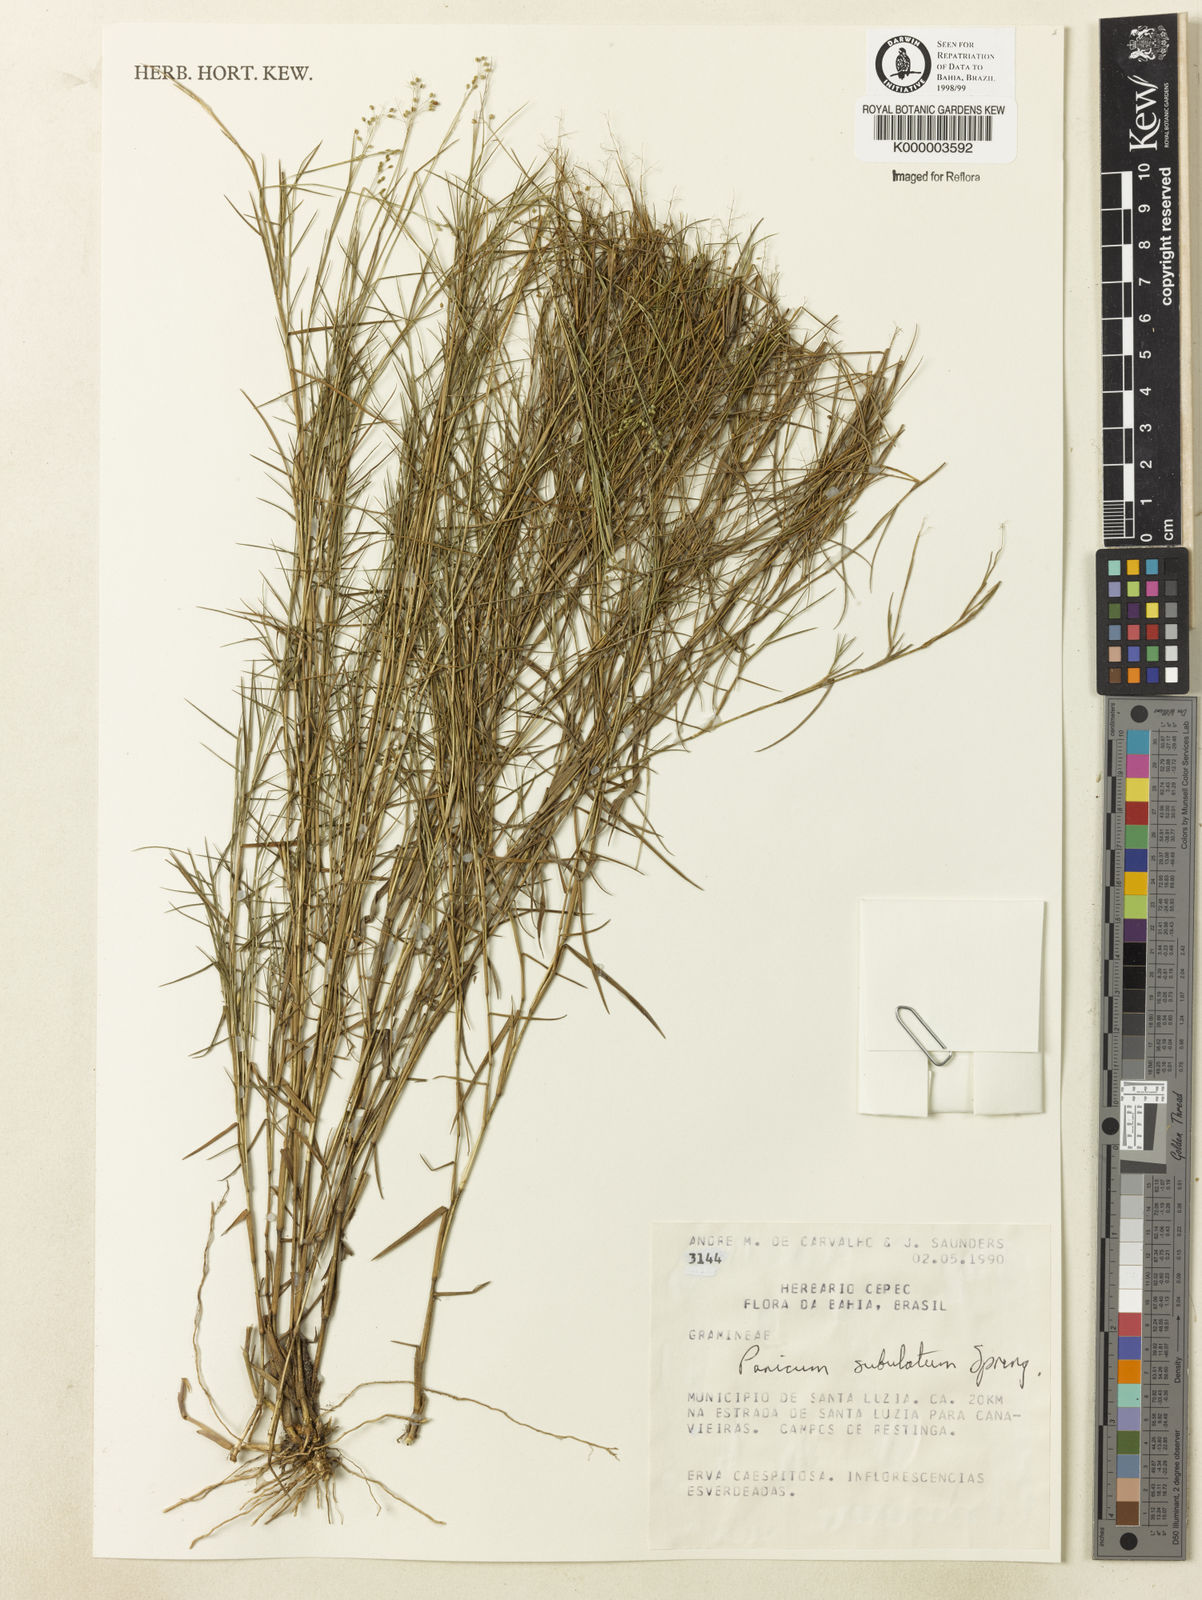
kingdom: Plantae
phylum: Tracheophyta
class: Liliopsida
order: Poales
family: Poaceae
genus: Trichanthecium
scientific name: Trichanthecium distichophyllum
